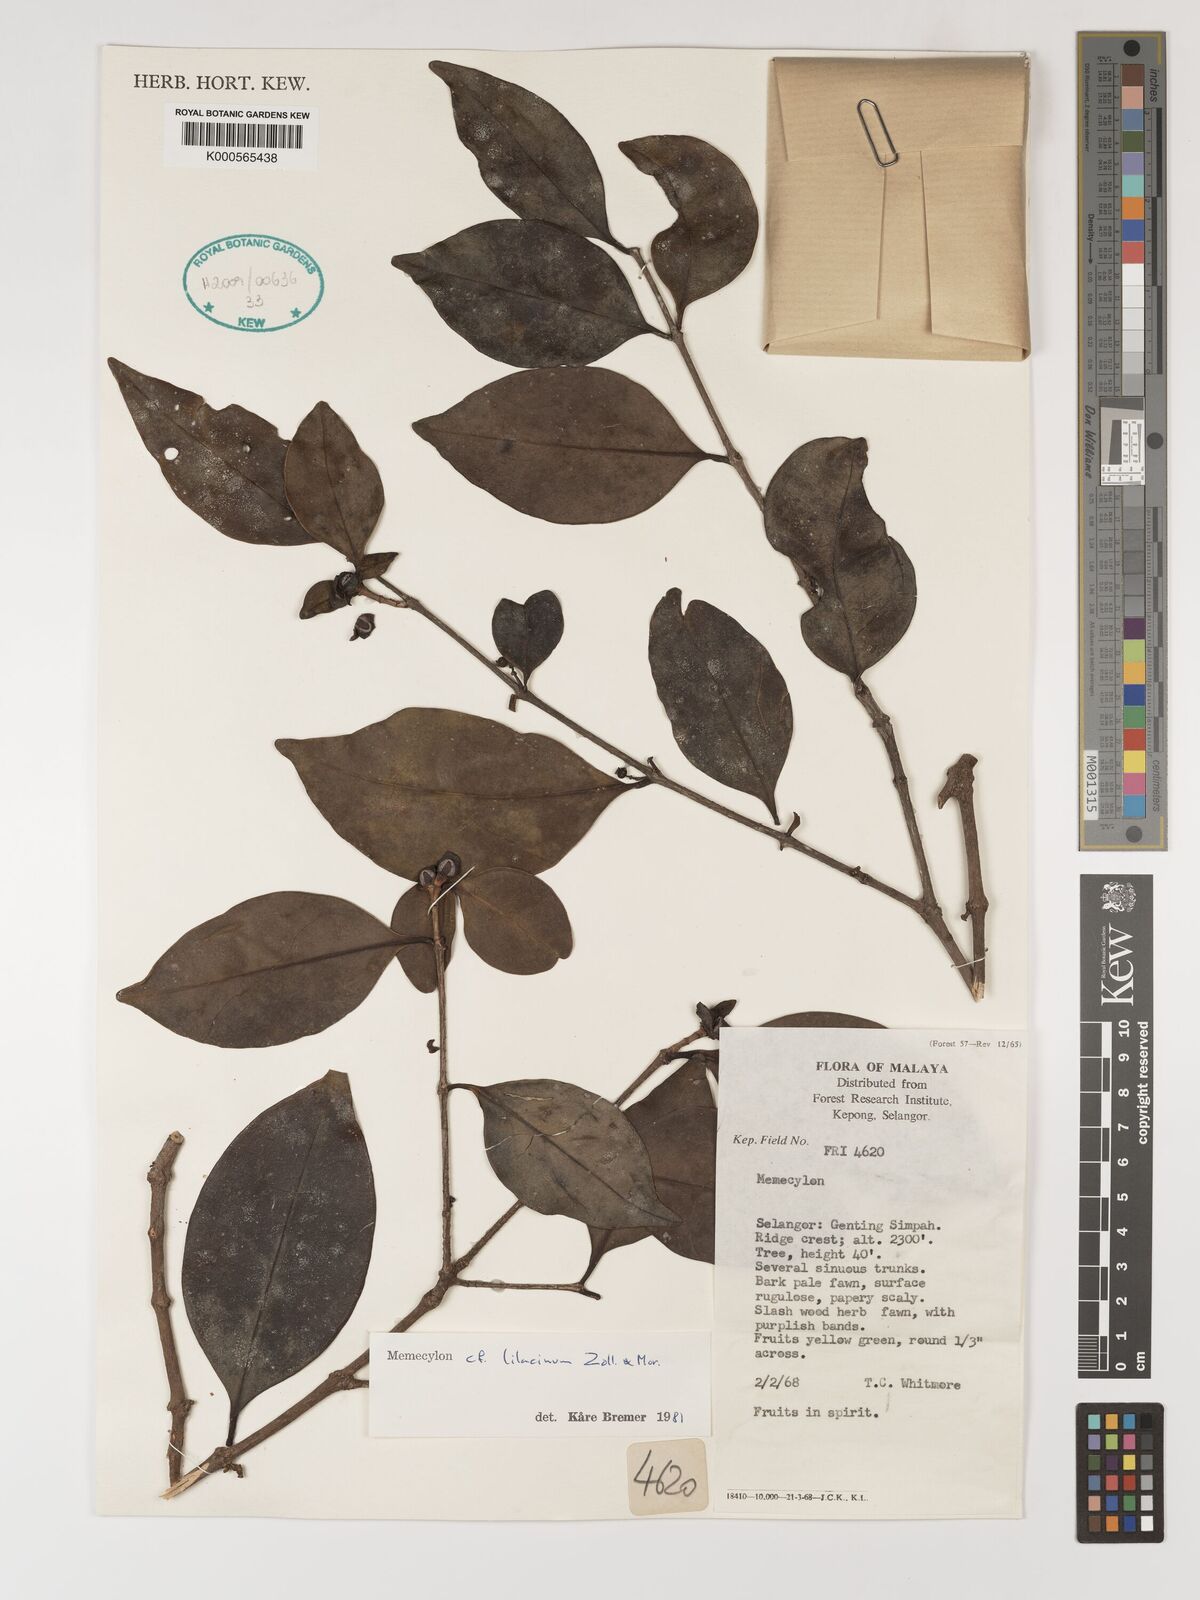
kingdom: Plantae
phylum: Tracheophyta
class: Magnoliopsida
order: Myrtales
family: Melastomataceae
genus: Memecylon
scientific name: Memecylon lilacinum
